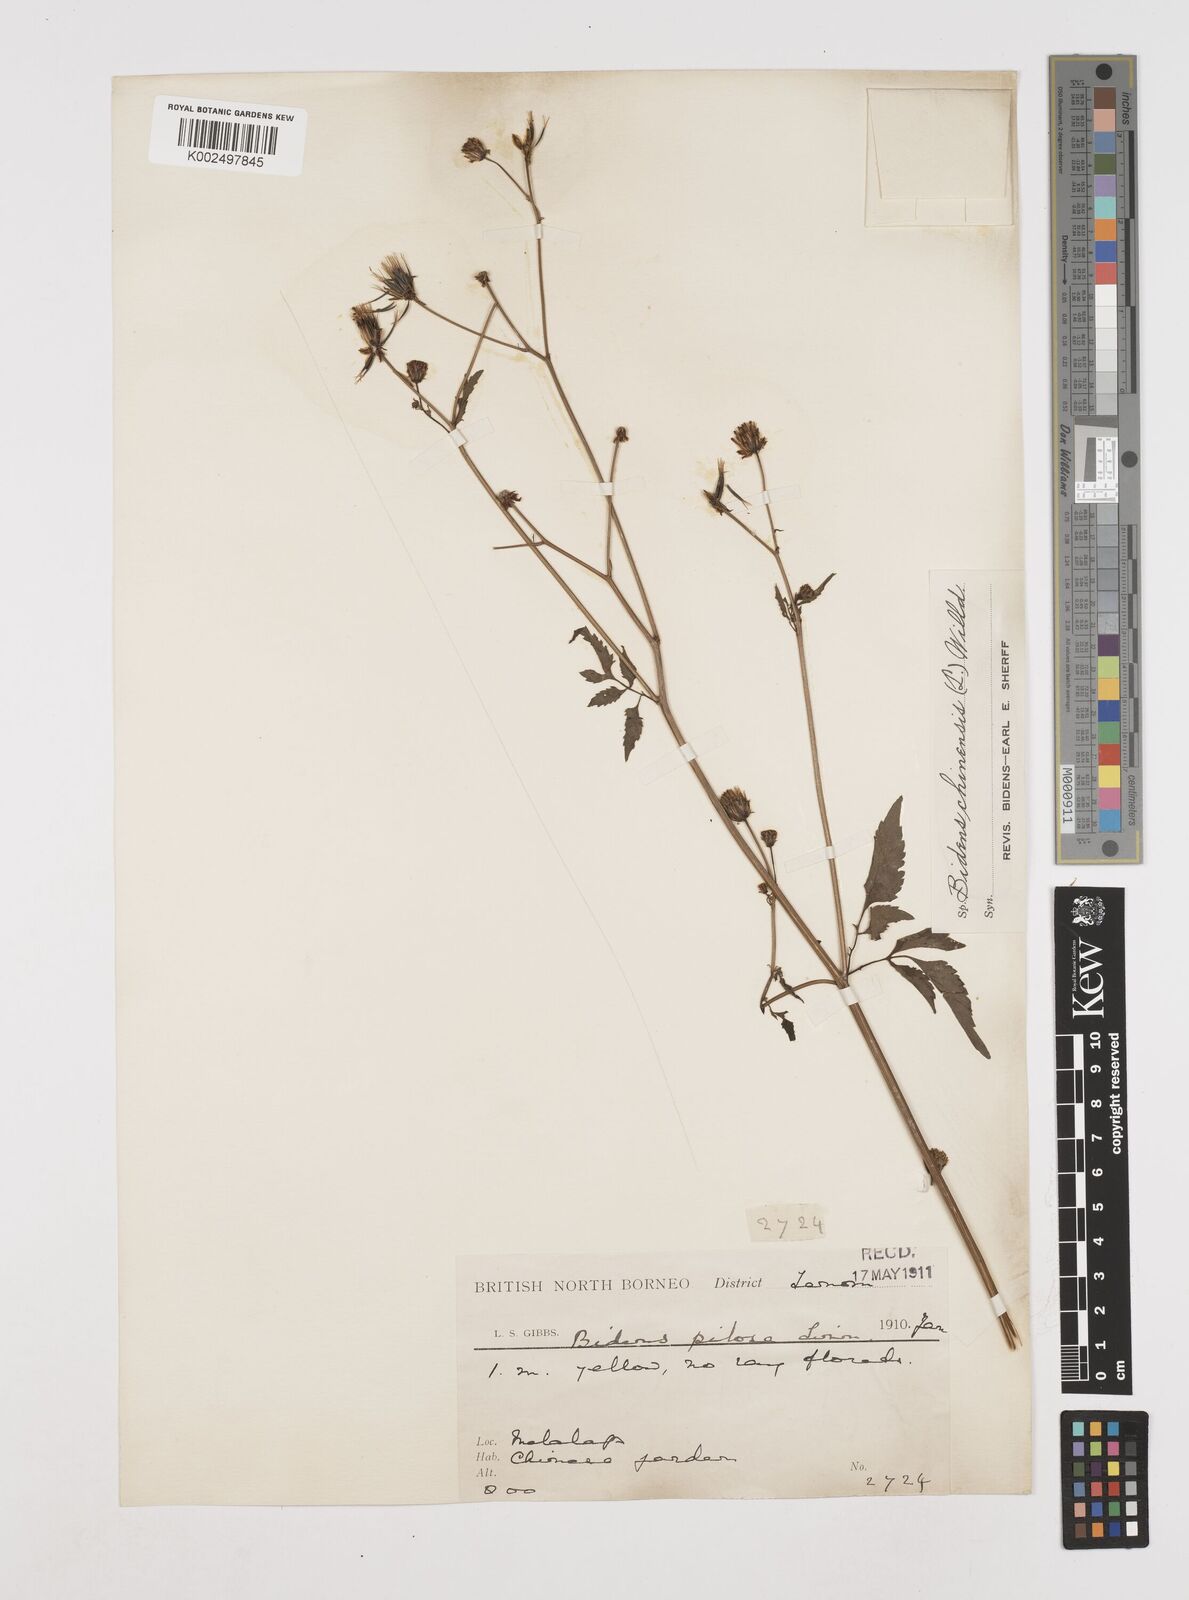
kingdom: Plantae
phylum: Tracheophyta
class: Magnoliopsida
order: Asterales
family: Asteraceae
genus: Bidens
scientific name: Bidens biternata
